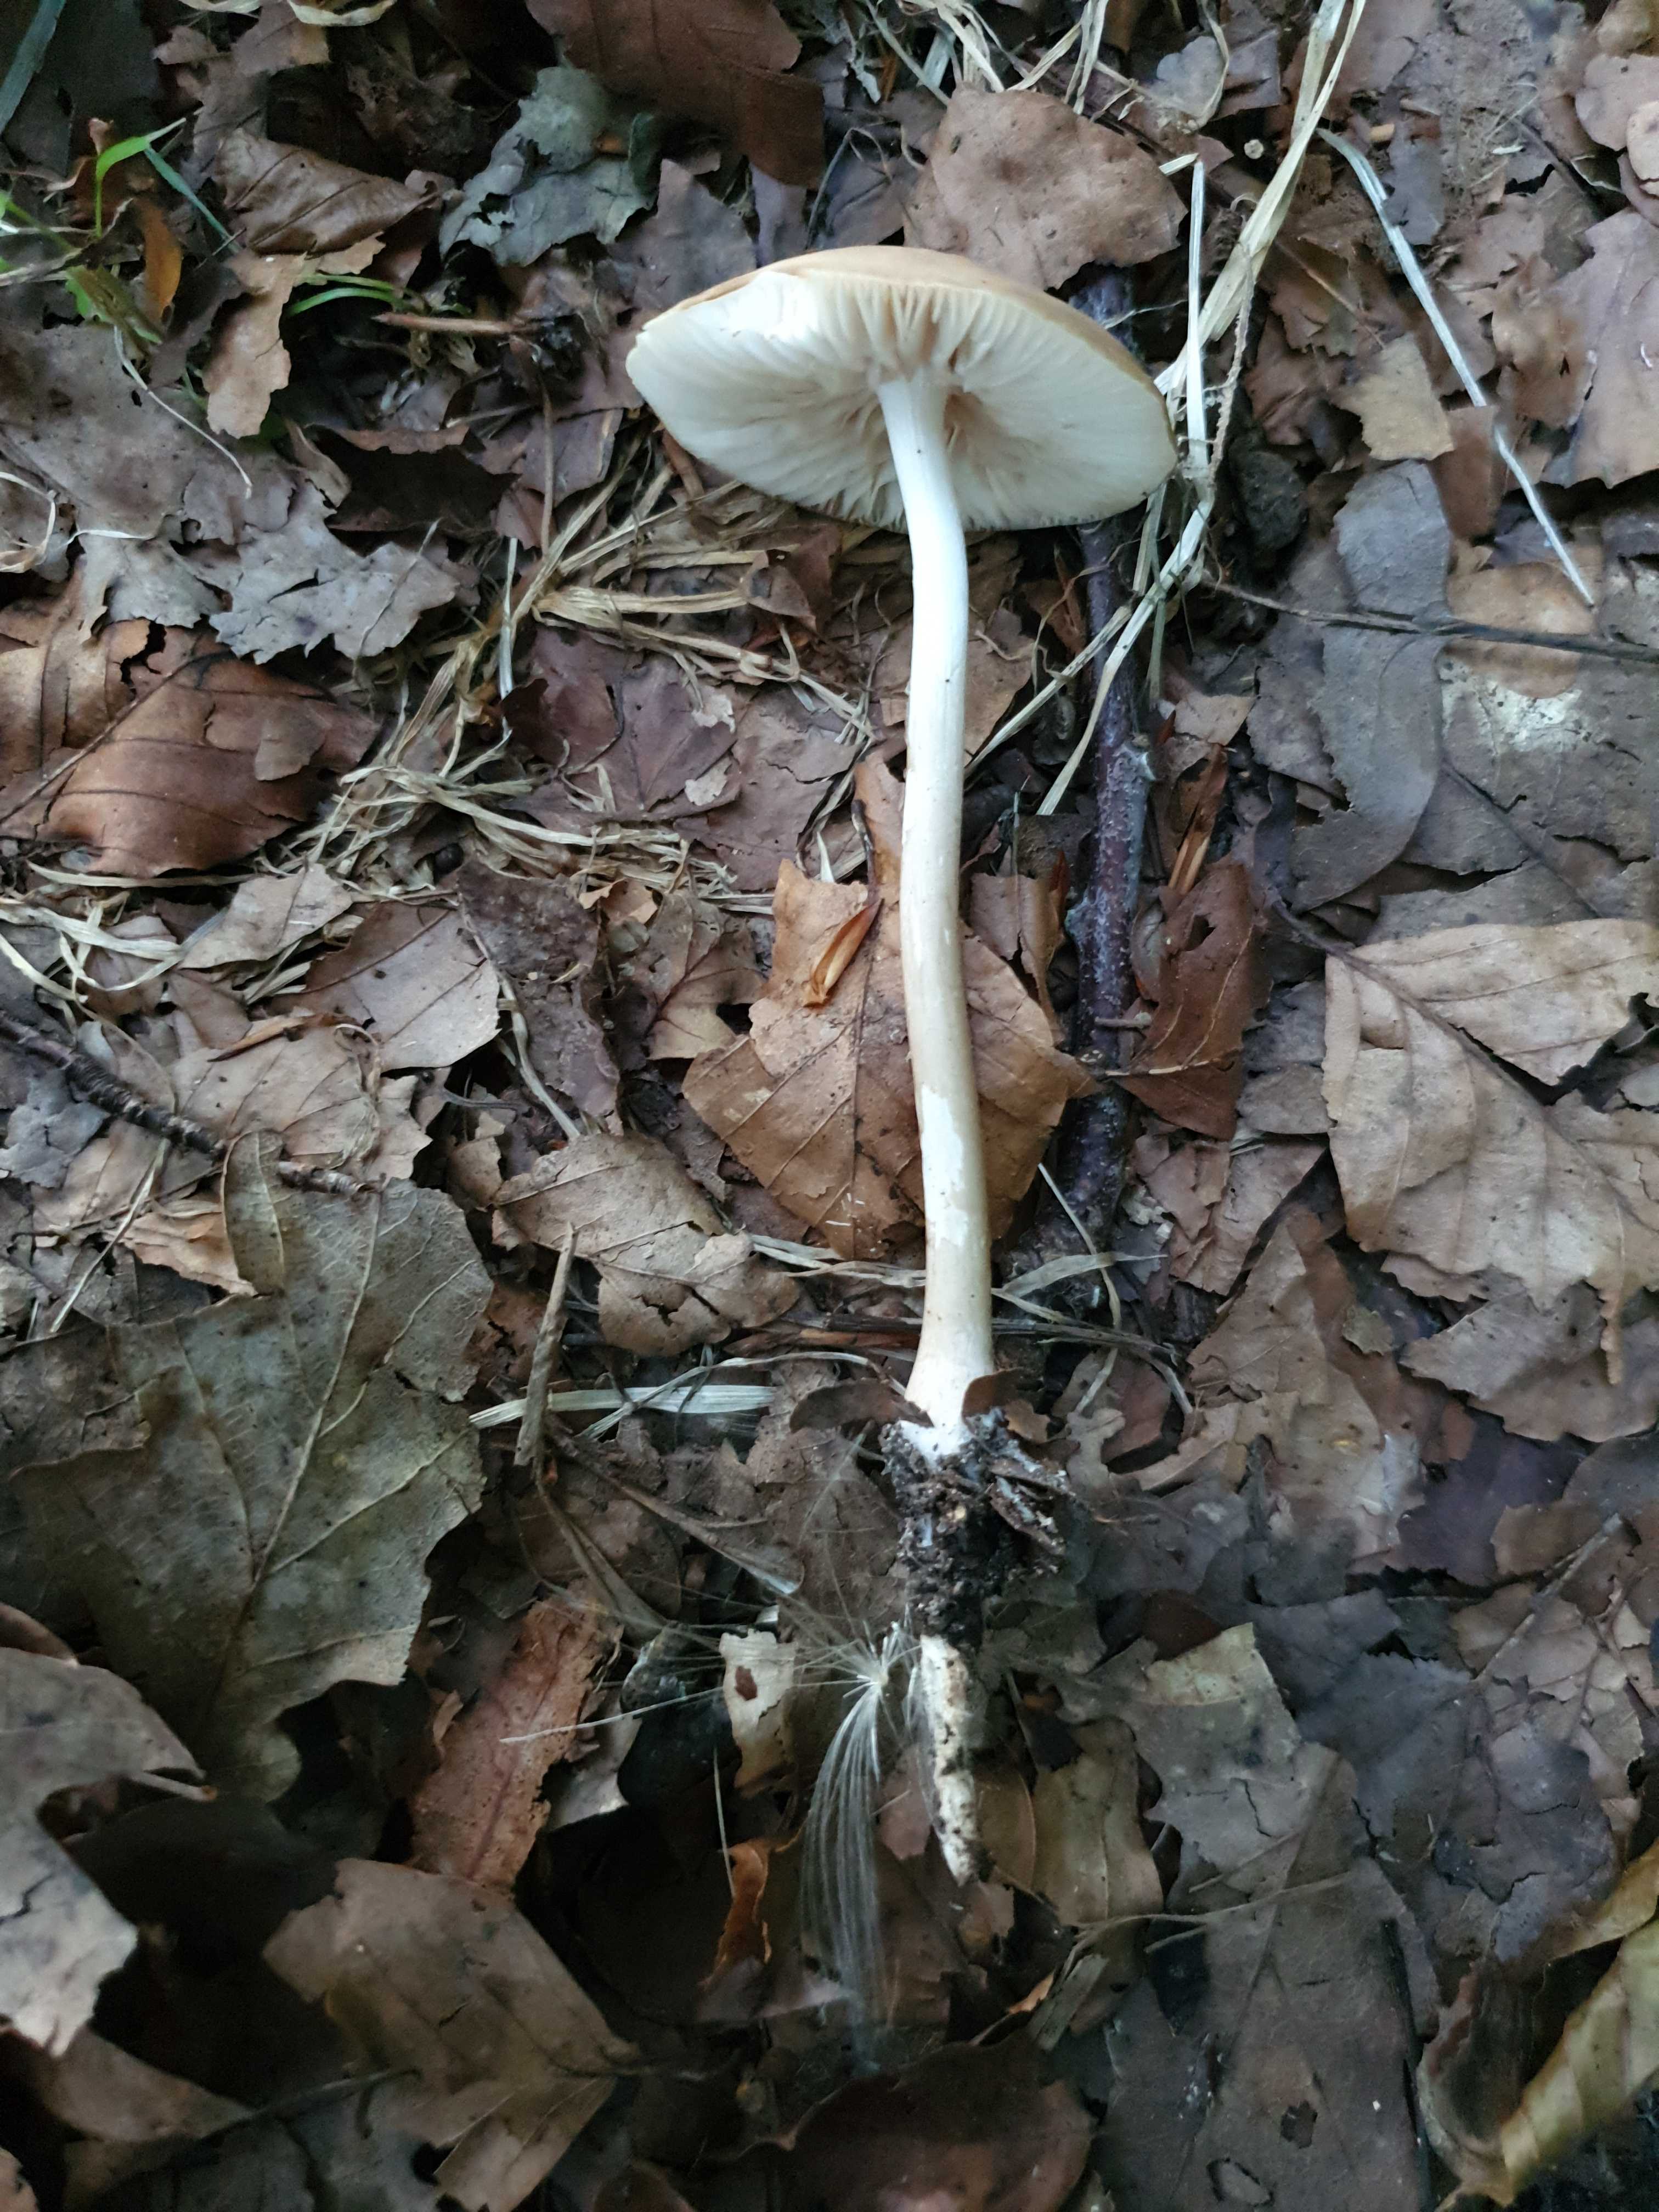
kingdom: Fungi
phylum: Basidiomycota
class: Agaricomycetes
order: Agaricales
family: Physalacriaceae
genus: Hymenopellis
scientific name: Hymenopellis radicata
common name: almindelig pælerodshat
